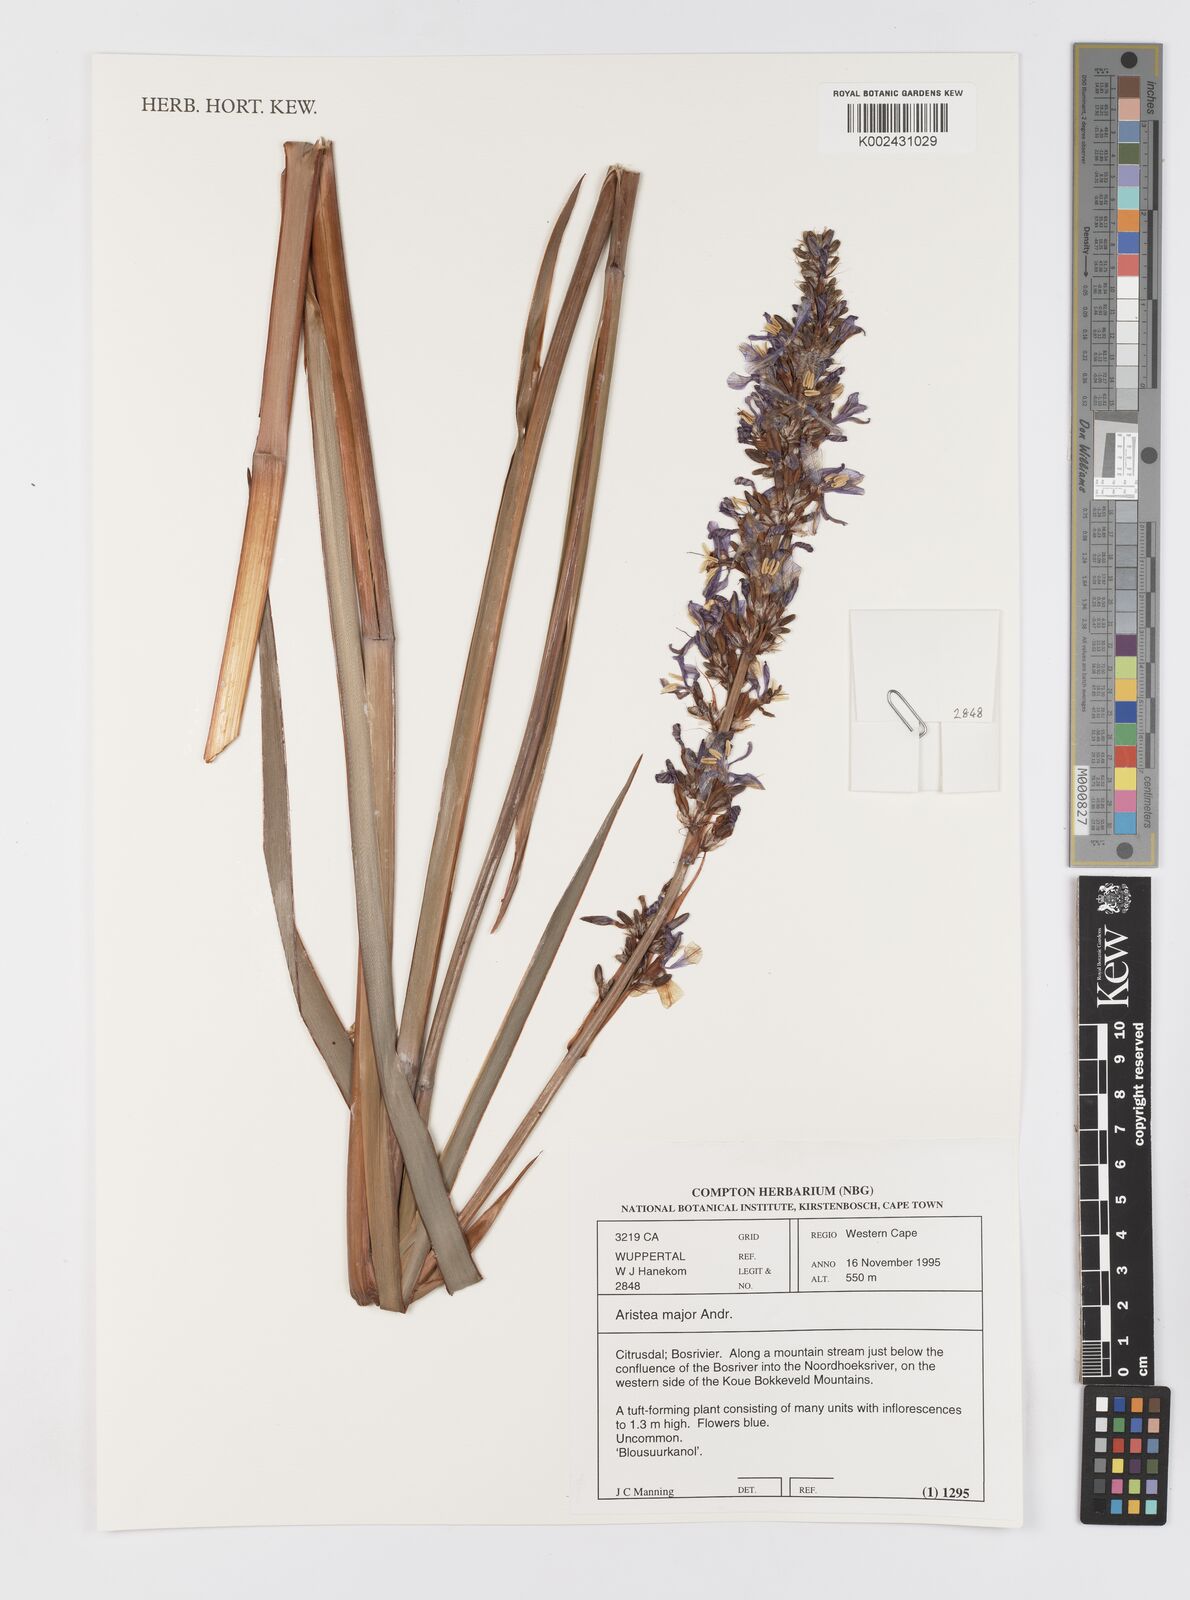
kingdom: Plantae
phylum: Tracheophyta
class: Liliopsida
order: Asparagales
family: Iridaceae
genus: Aristea
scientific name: Aristea capitata
